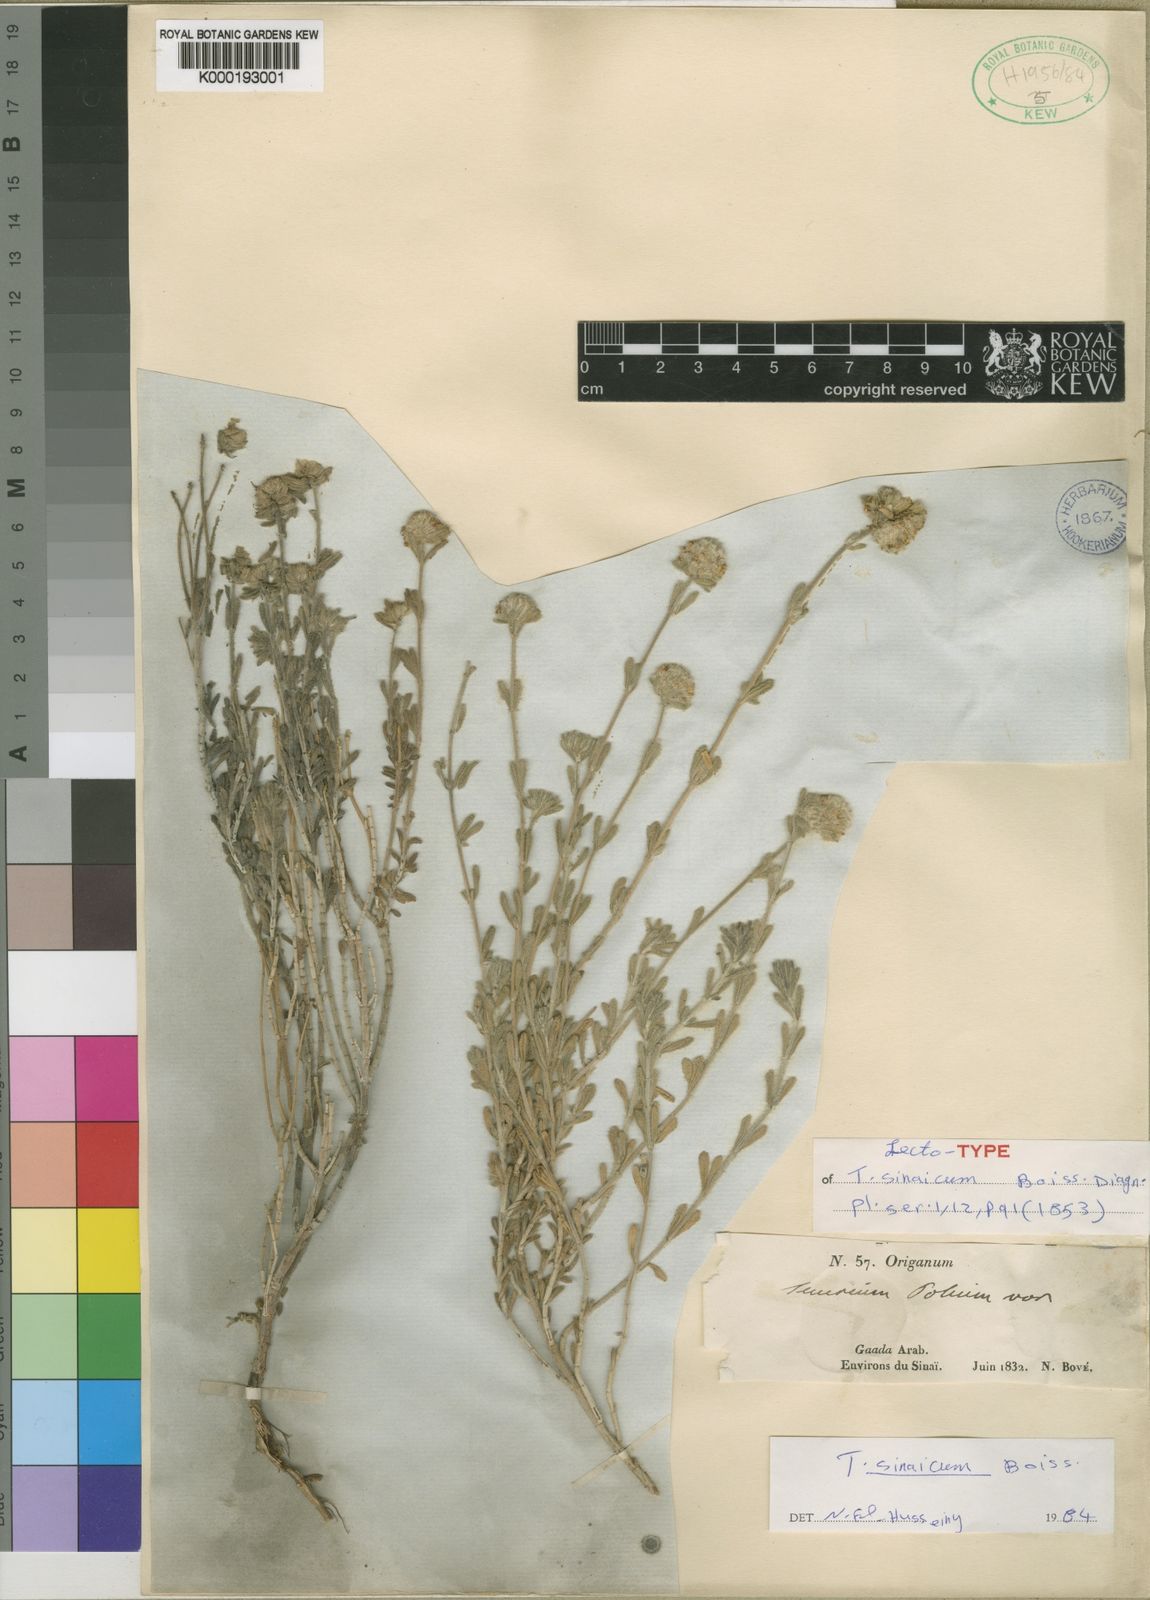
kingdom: Plantae
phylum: Tracheophyta
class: Magnoliopsida
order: Lamiales
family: Lamiaceae
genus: Teucrium
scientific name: Teucrium decaisnei
